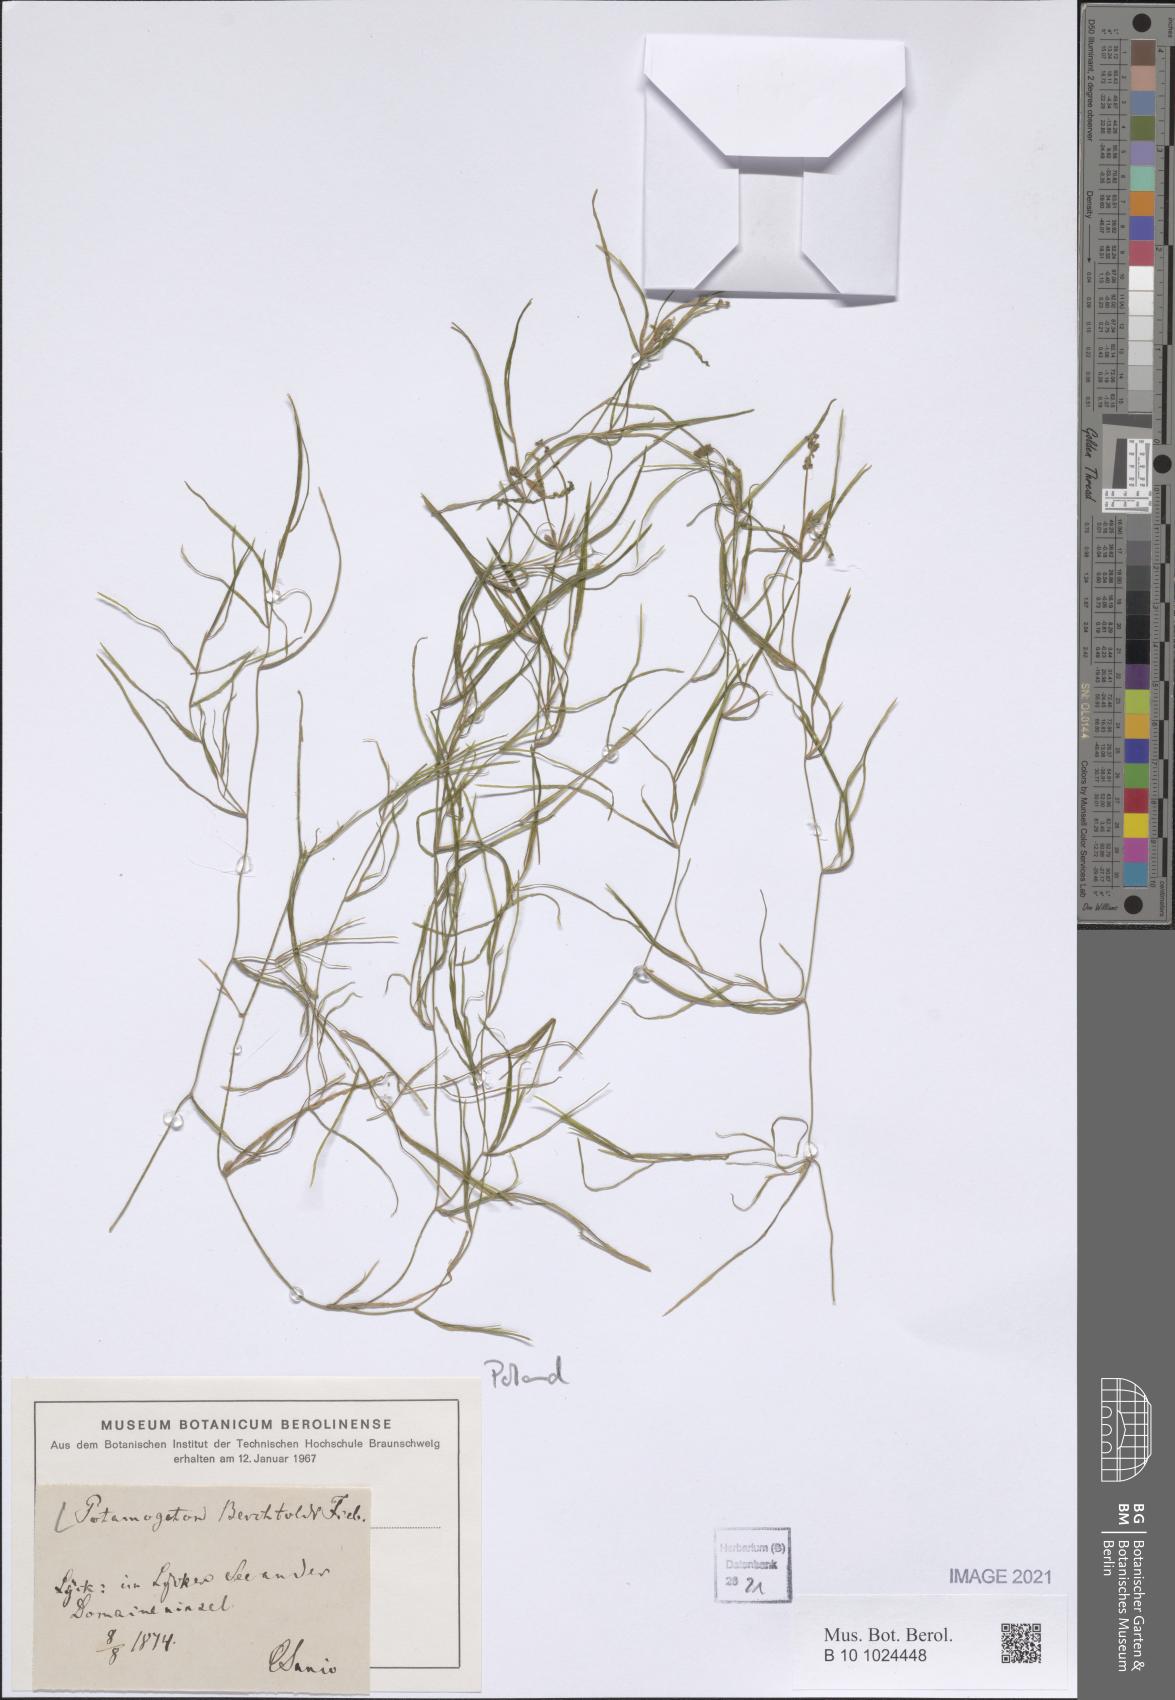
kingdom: Plantae
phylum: Tracheophyta
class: Liliopsida
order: Alismatales
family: Potamogetonaceae
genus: Potamogeton
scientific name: Potamogeton berchtoldii
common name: Small pondweed
